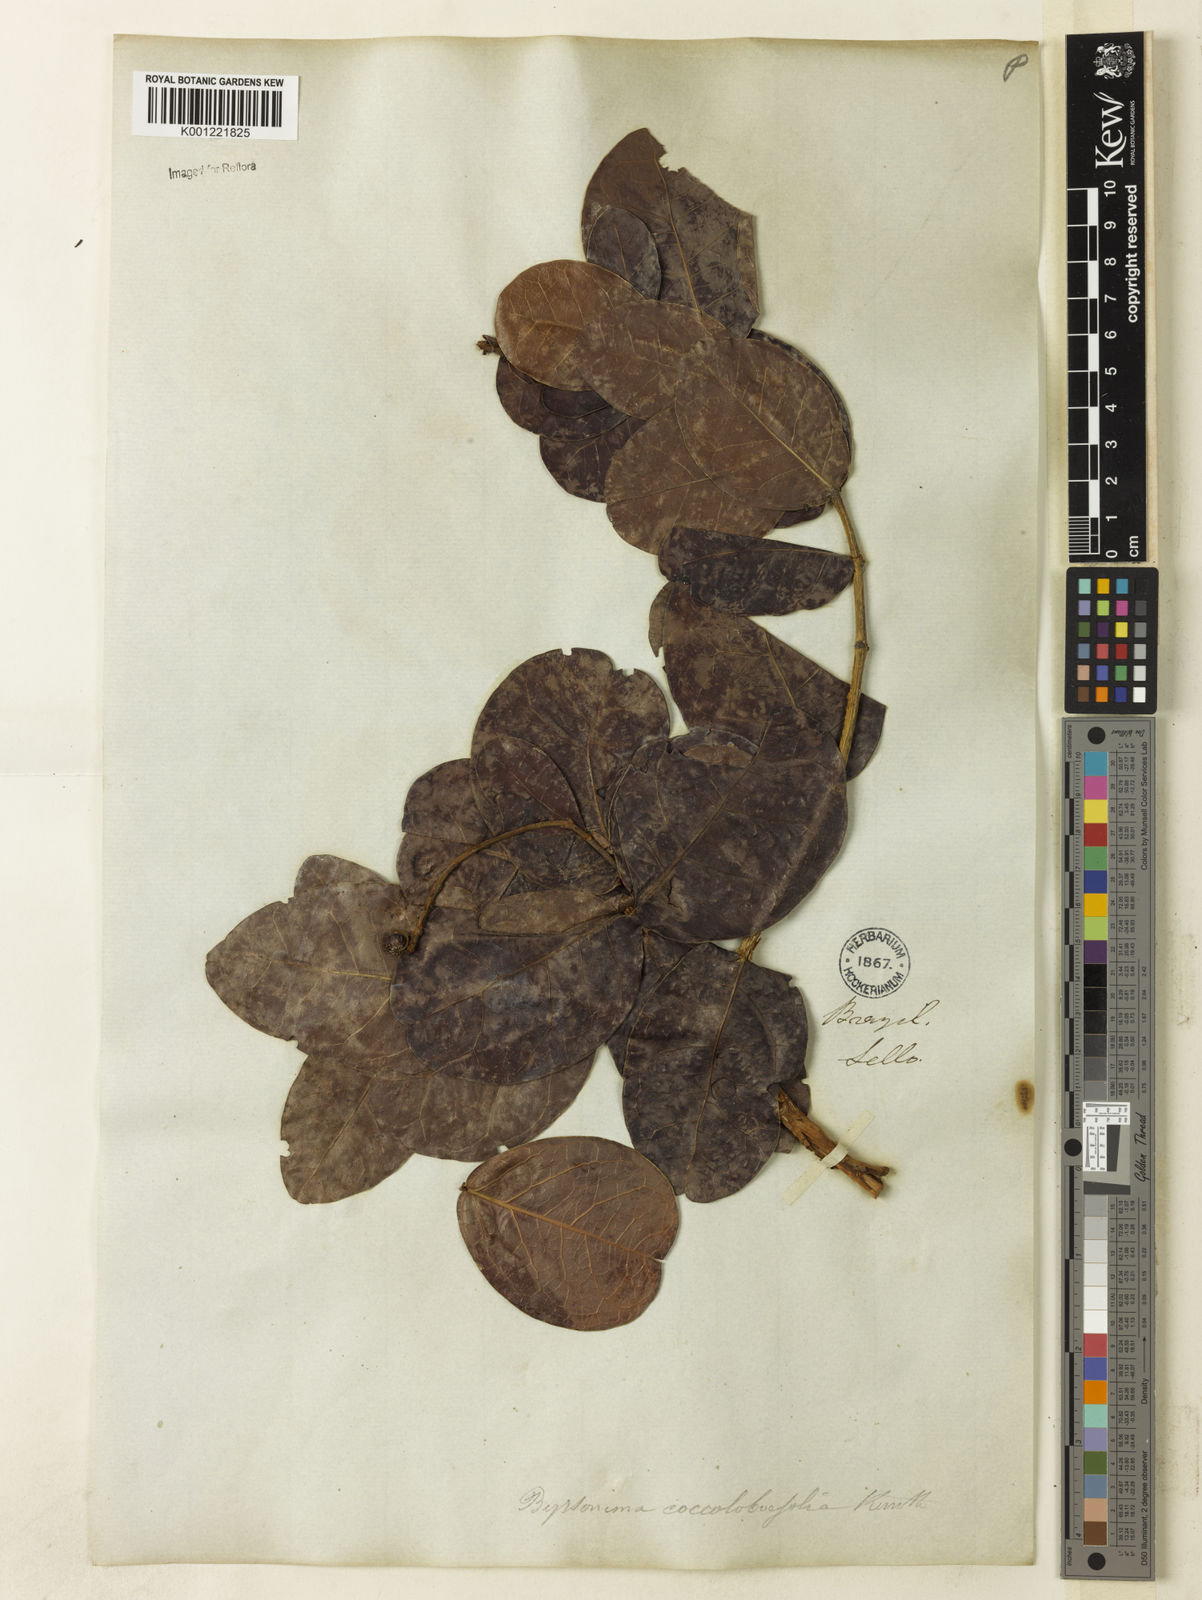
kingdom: Plantae
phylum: Tracheophyta
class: Magnoliopsida
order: Malpighiales
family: Malpighiaceae
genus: Byrsonima
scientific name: Byrsonima coccolobifolia
